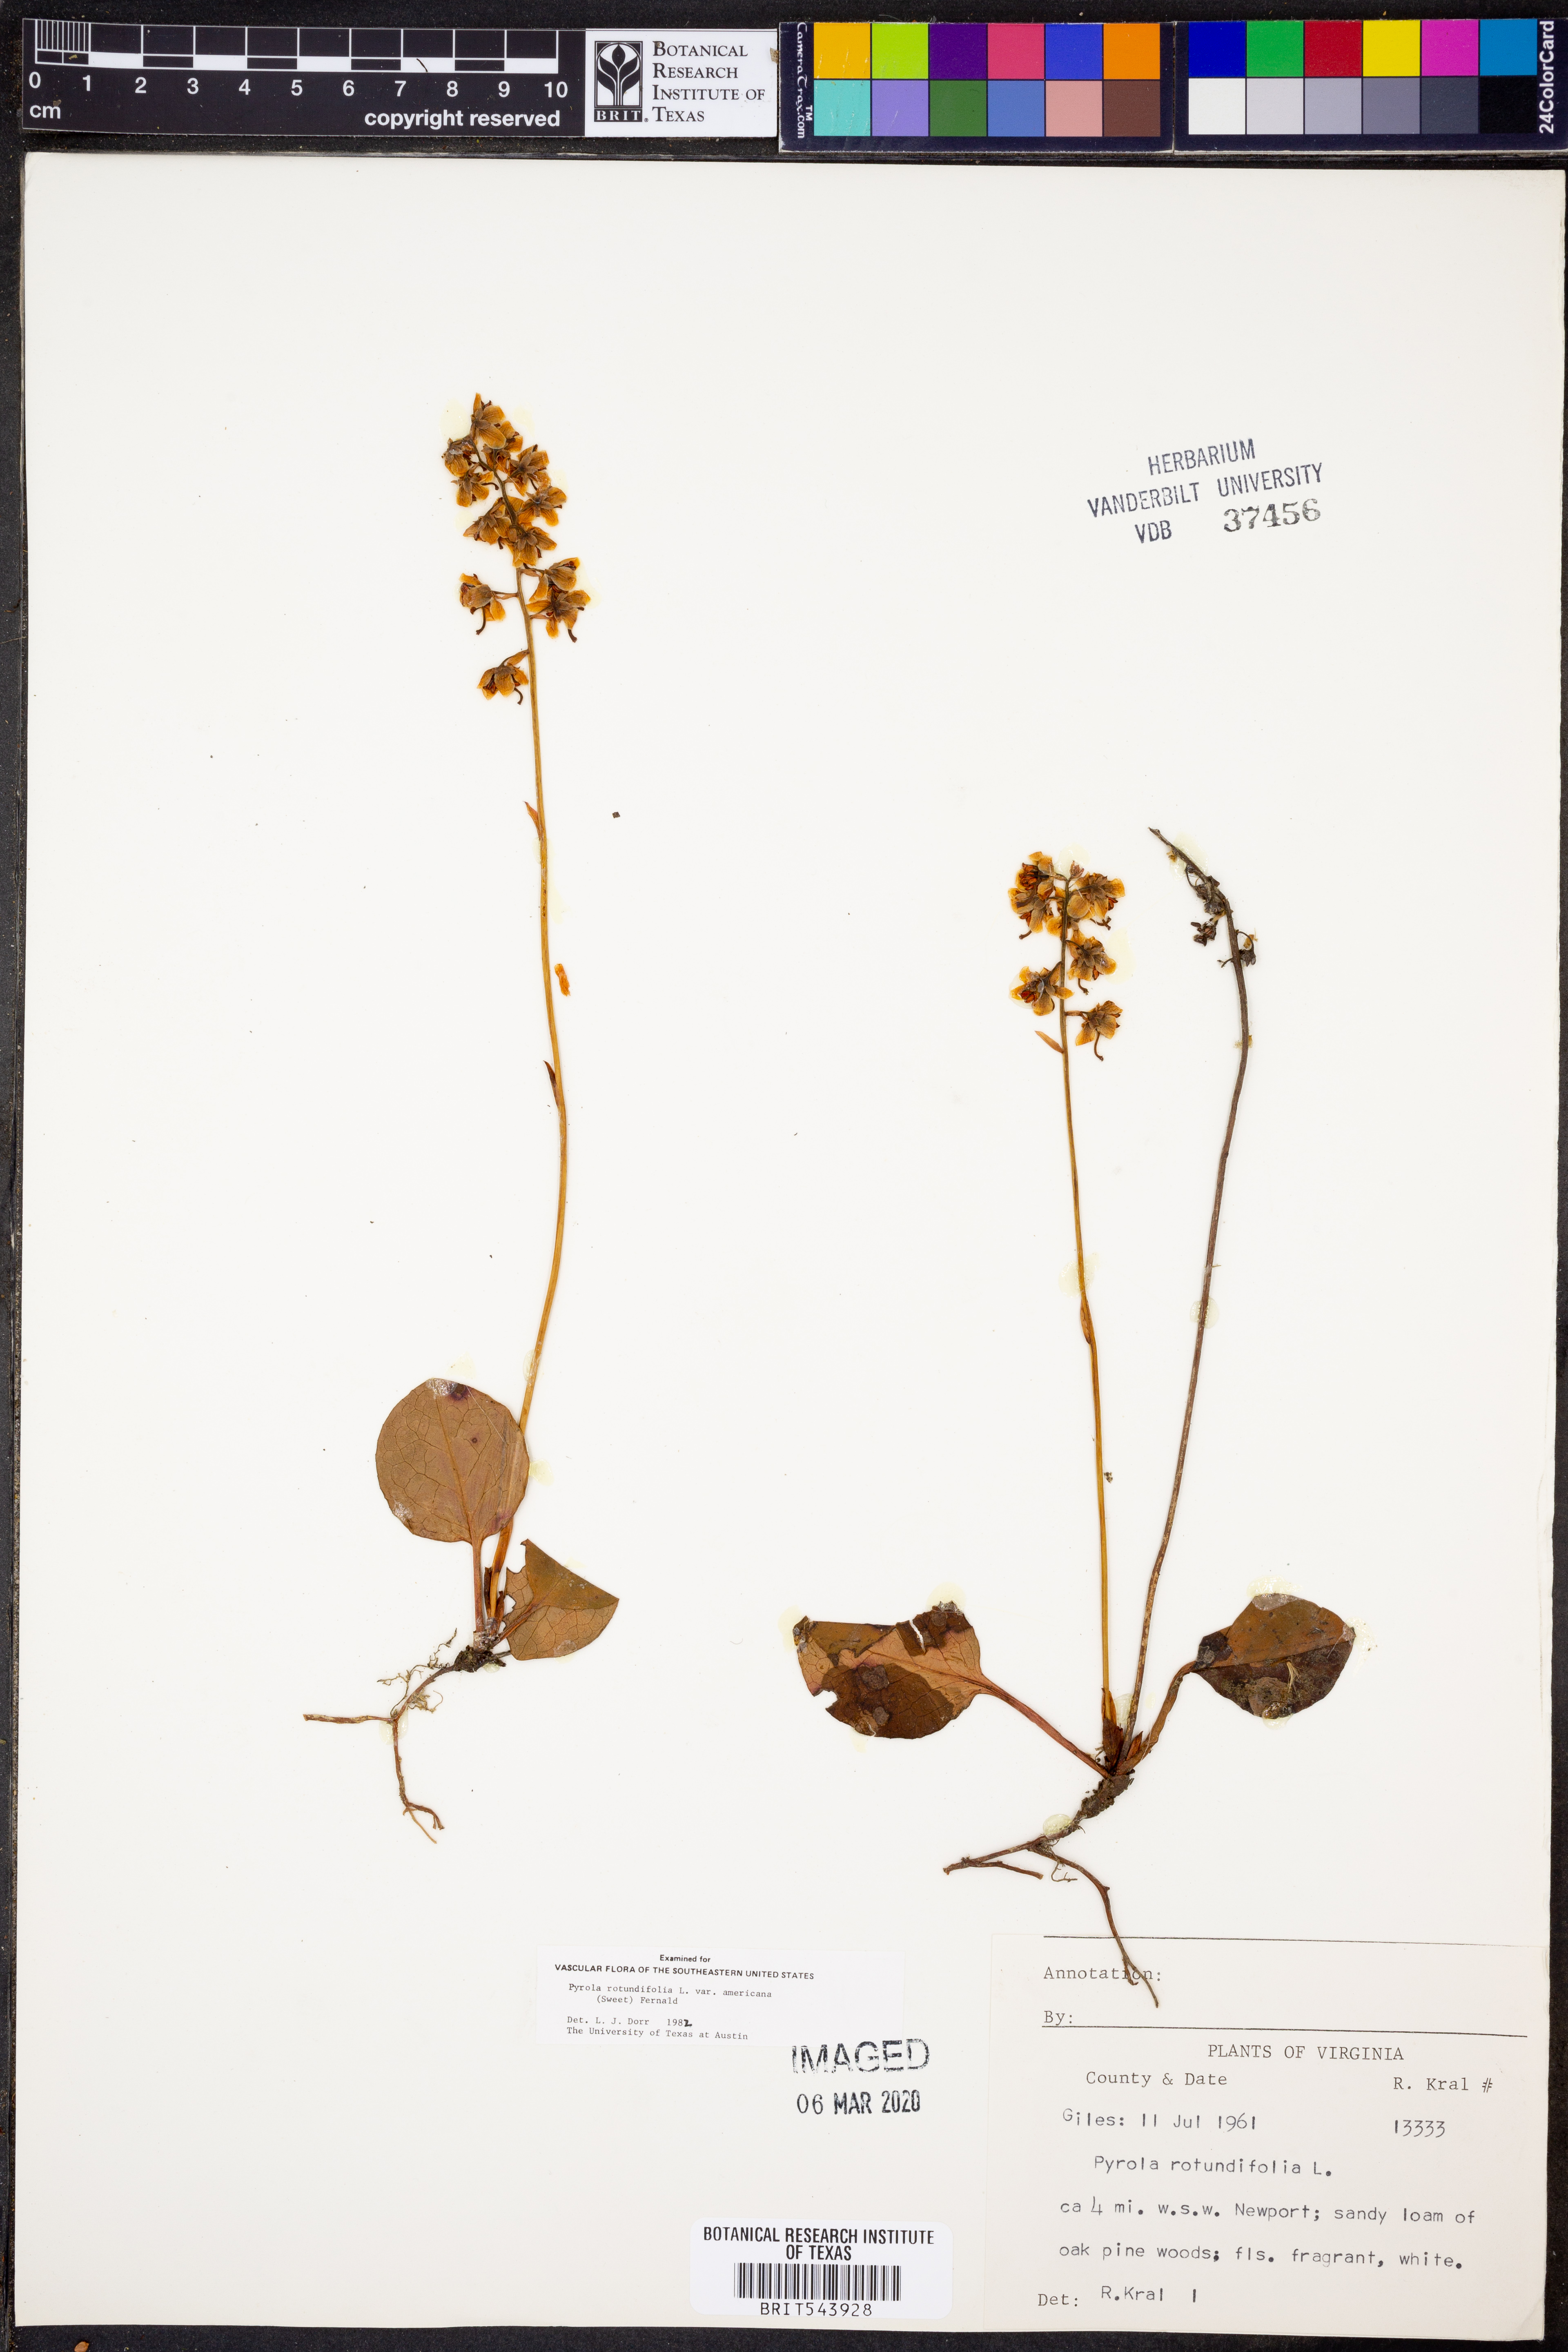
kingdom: Plantae
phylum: Tracheophyta
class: Magnoliopsida
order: Ericales
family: Ericaceae
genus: Pyrola
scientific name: Pyrola americana
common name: American wintergreen
